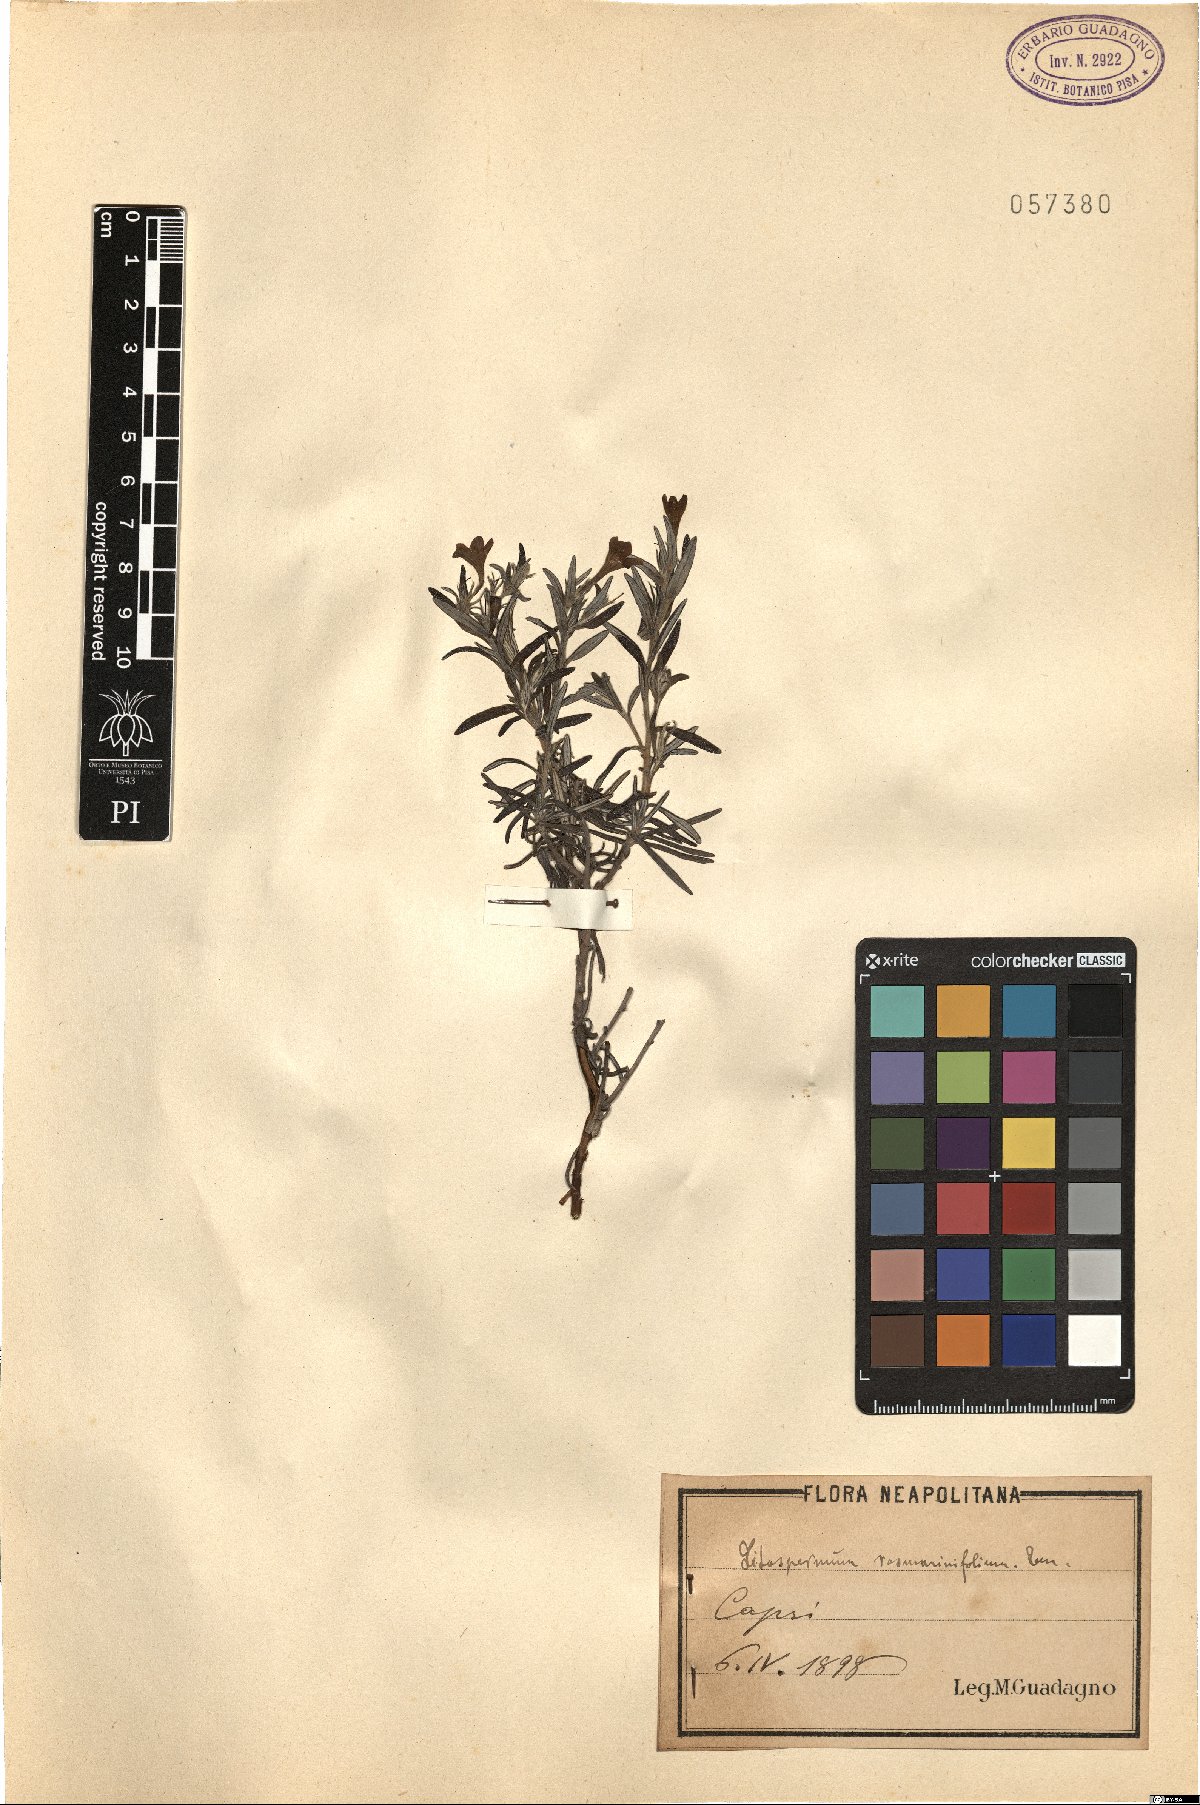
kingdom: Plantae
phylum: Tracheophyta
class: Magnoliopsida
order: Boraginales
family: Boraginaceae
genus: Glandora
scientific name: Glandora rosmarinifolia
